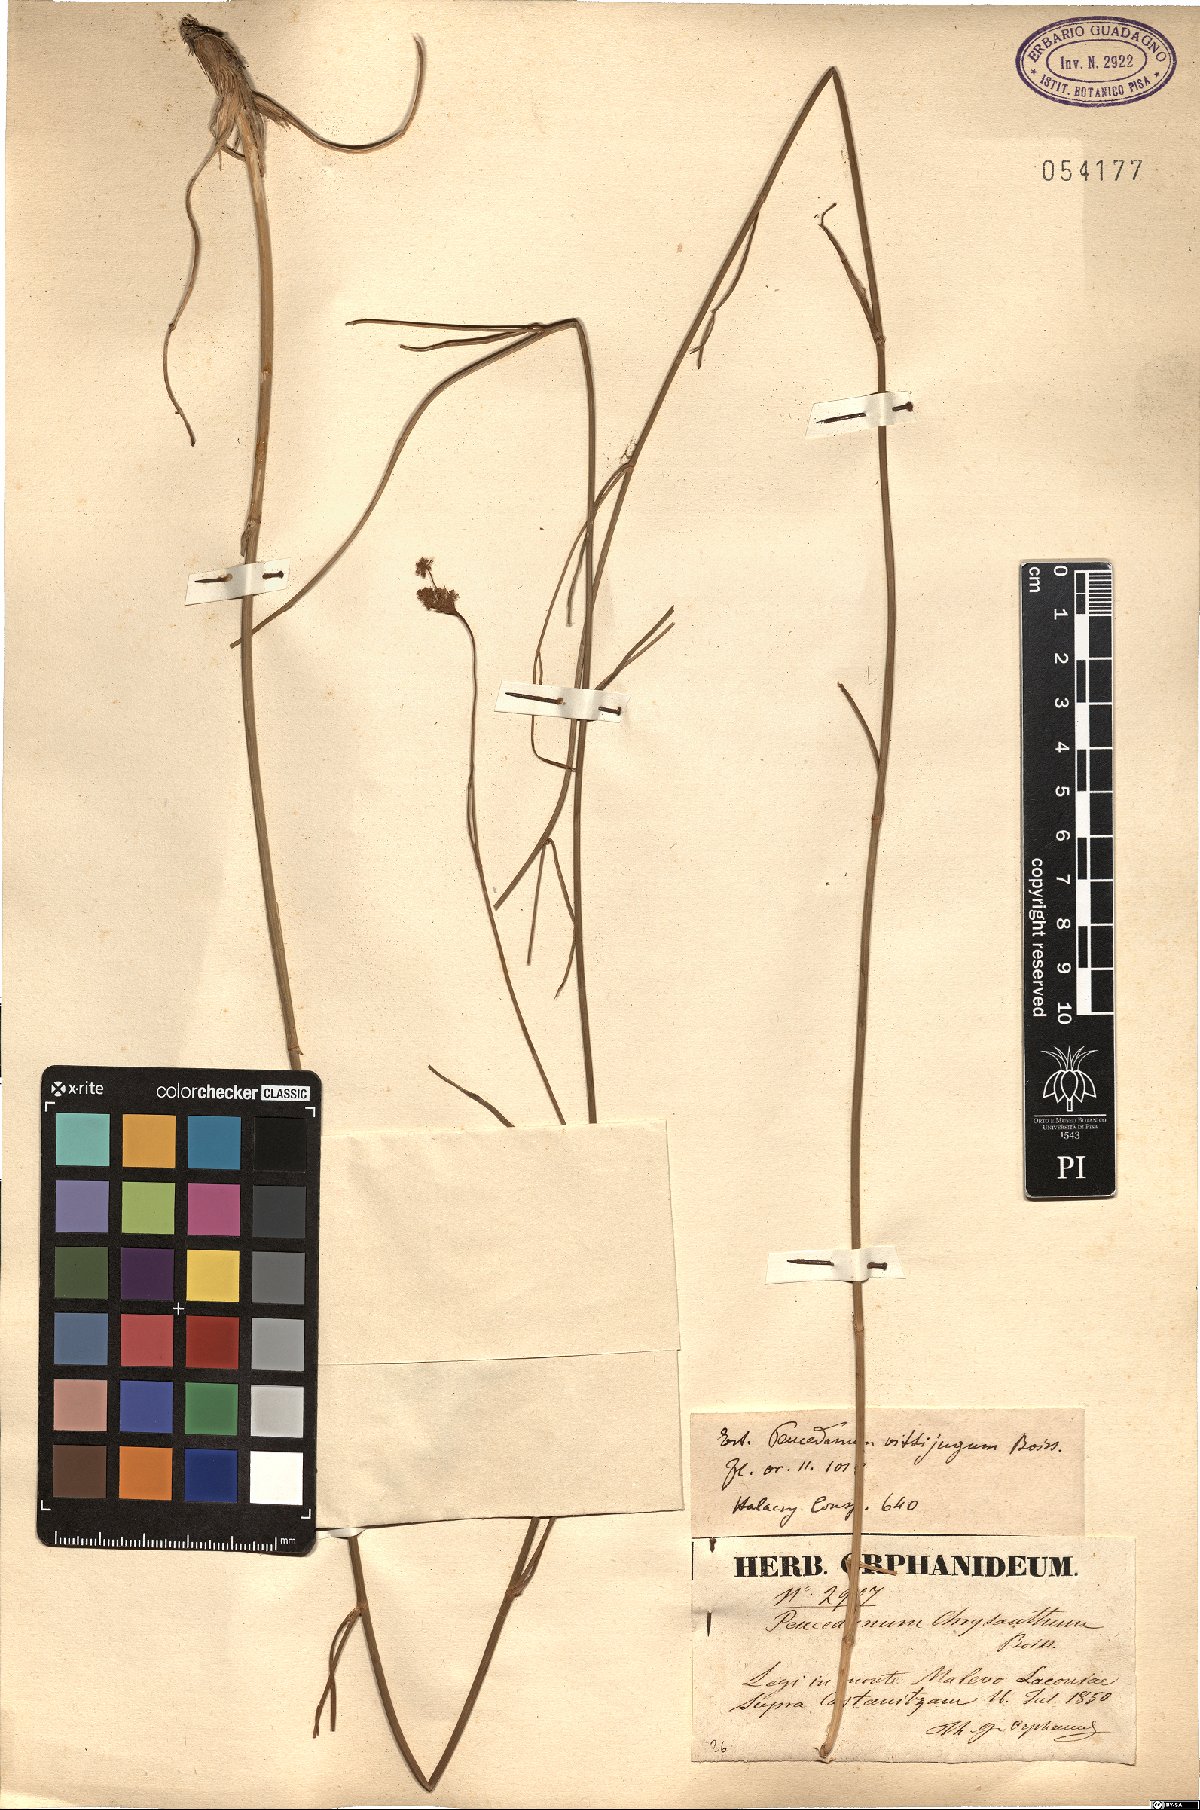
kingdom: Plantae
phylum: Tracheophyta
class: Magnoliopsida
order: Apiales
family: Apiaceae
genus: Dichoropetalum
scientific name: Dichoropetalum vittijugum
